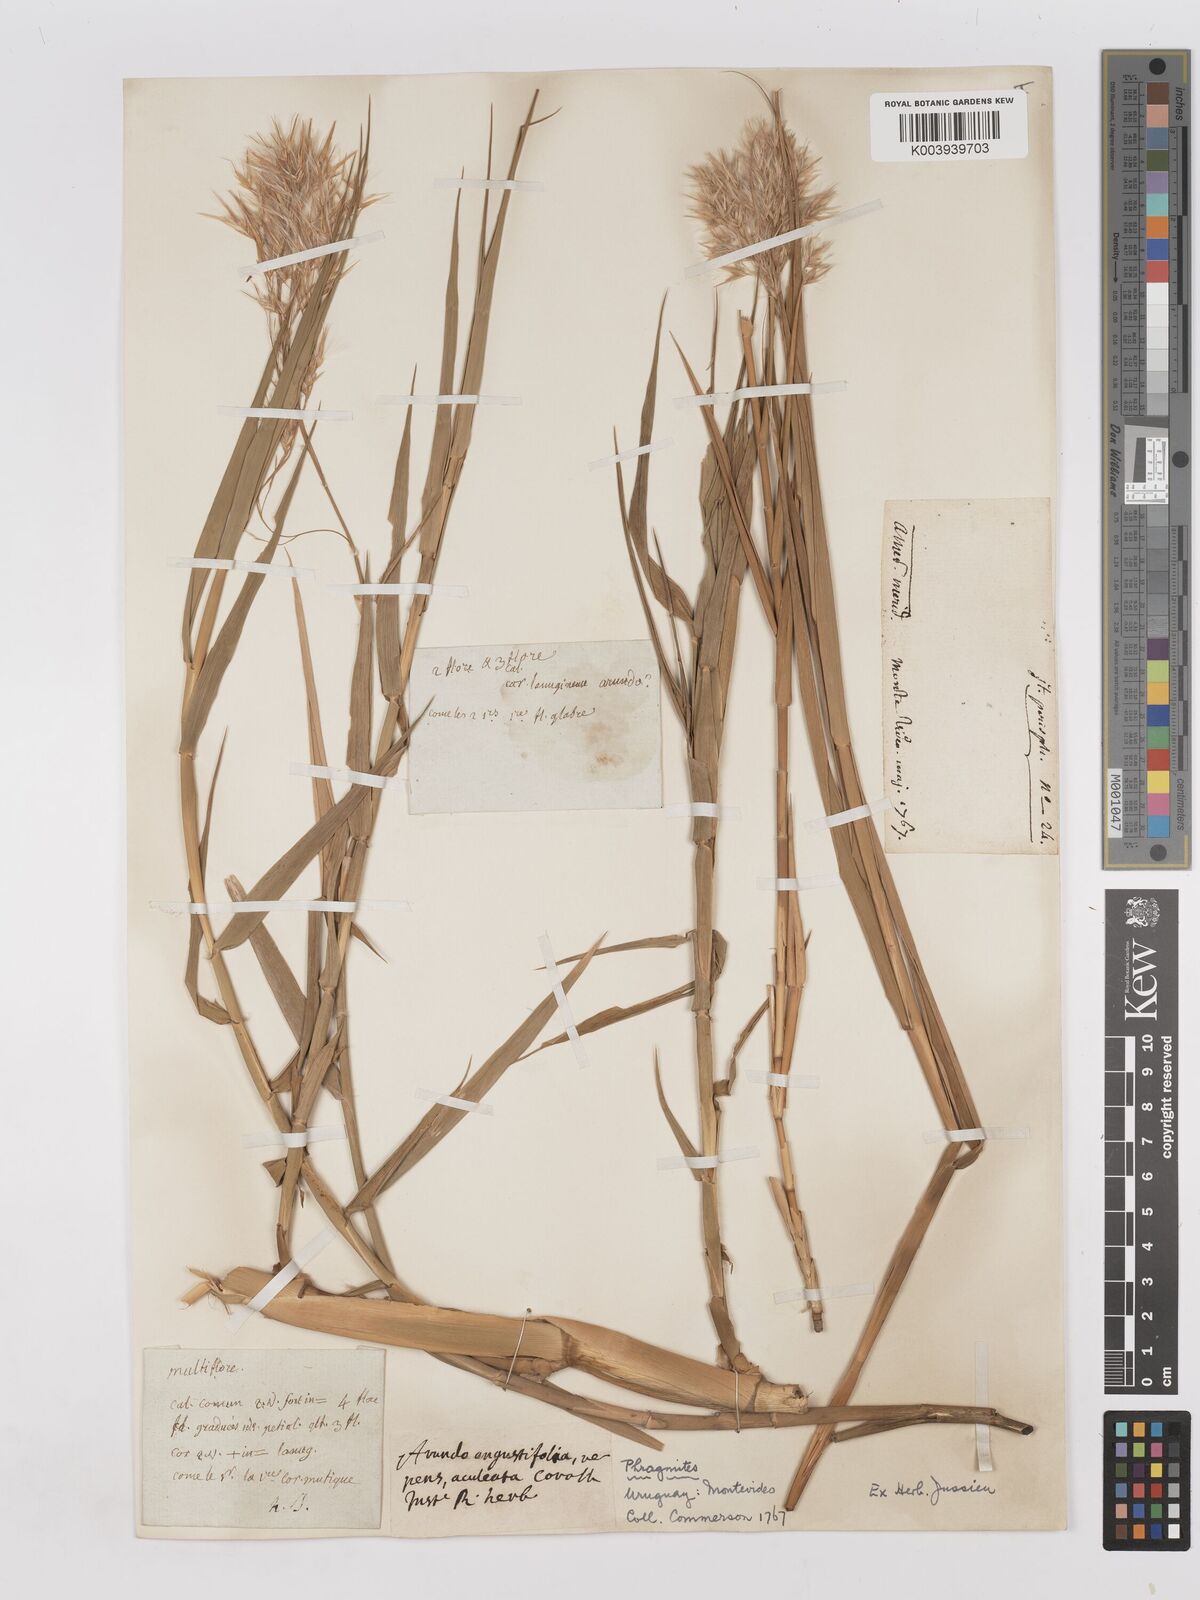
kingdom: Plantae
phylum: Tracheophyta
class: Liliopsida
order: Poales
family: Poaceae
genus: Phragmites
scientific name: Phragmites australis
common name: Common reed
